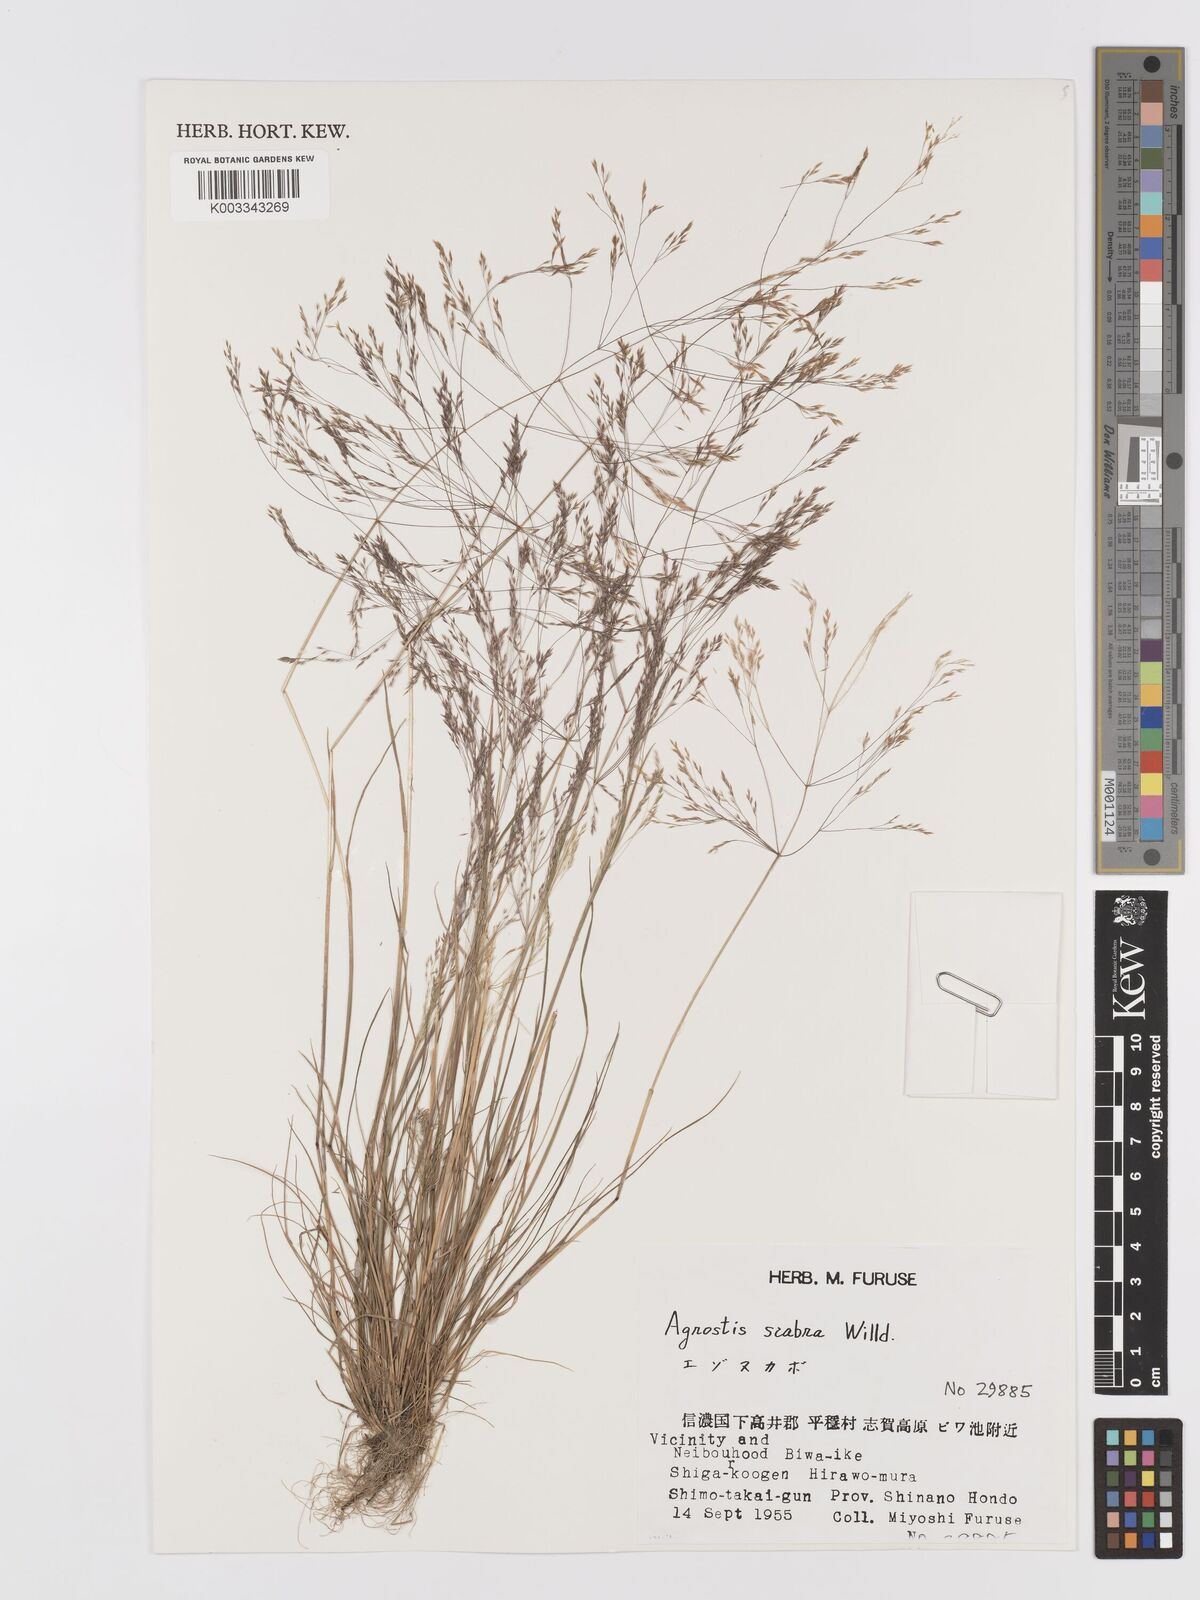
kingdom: Plantae
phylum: Tracheophyta
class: Liliopsida
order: Poales
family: Poaceae
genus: Agrostis
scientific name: Agrostis scabra
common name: Rough bent
